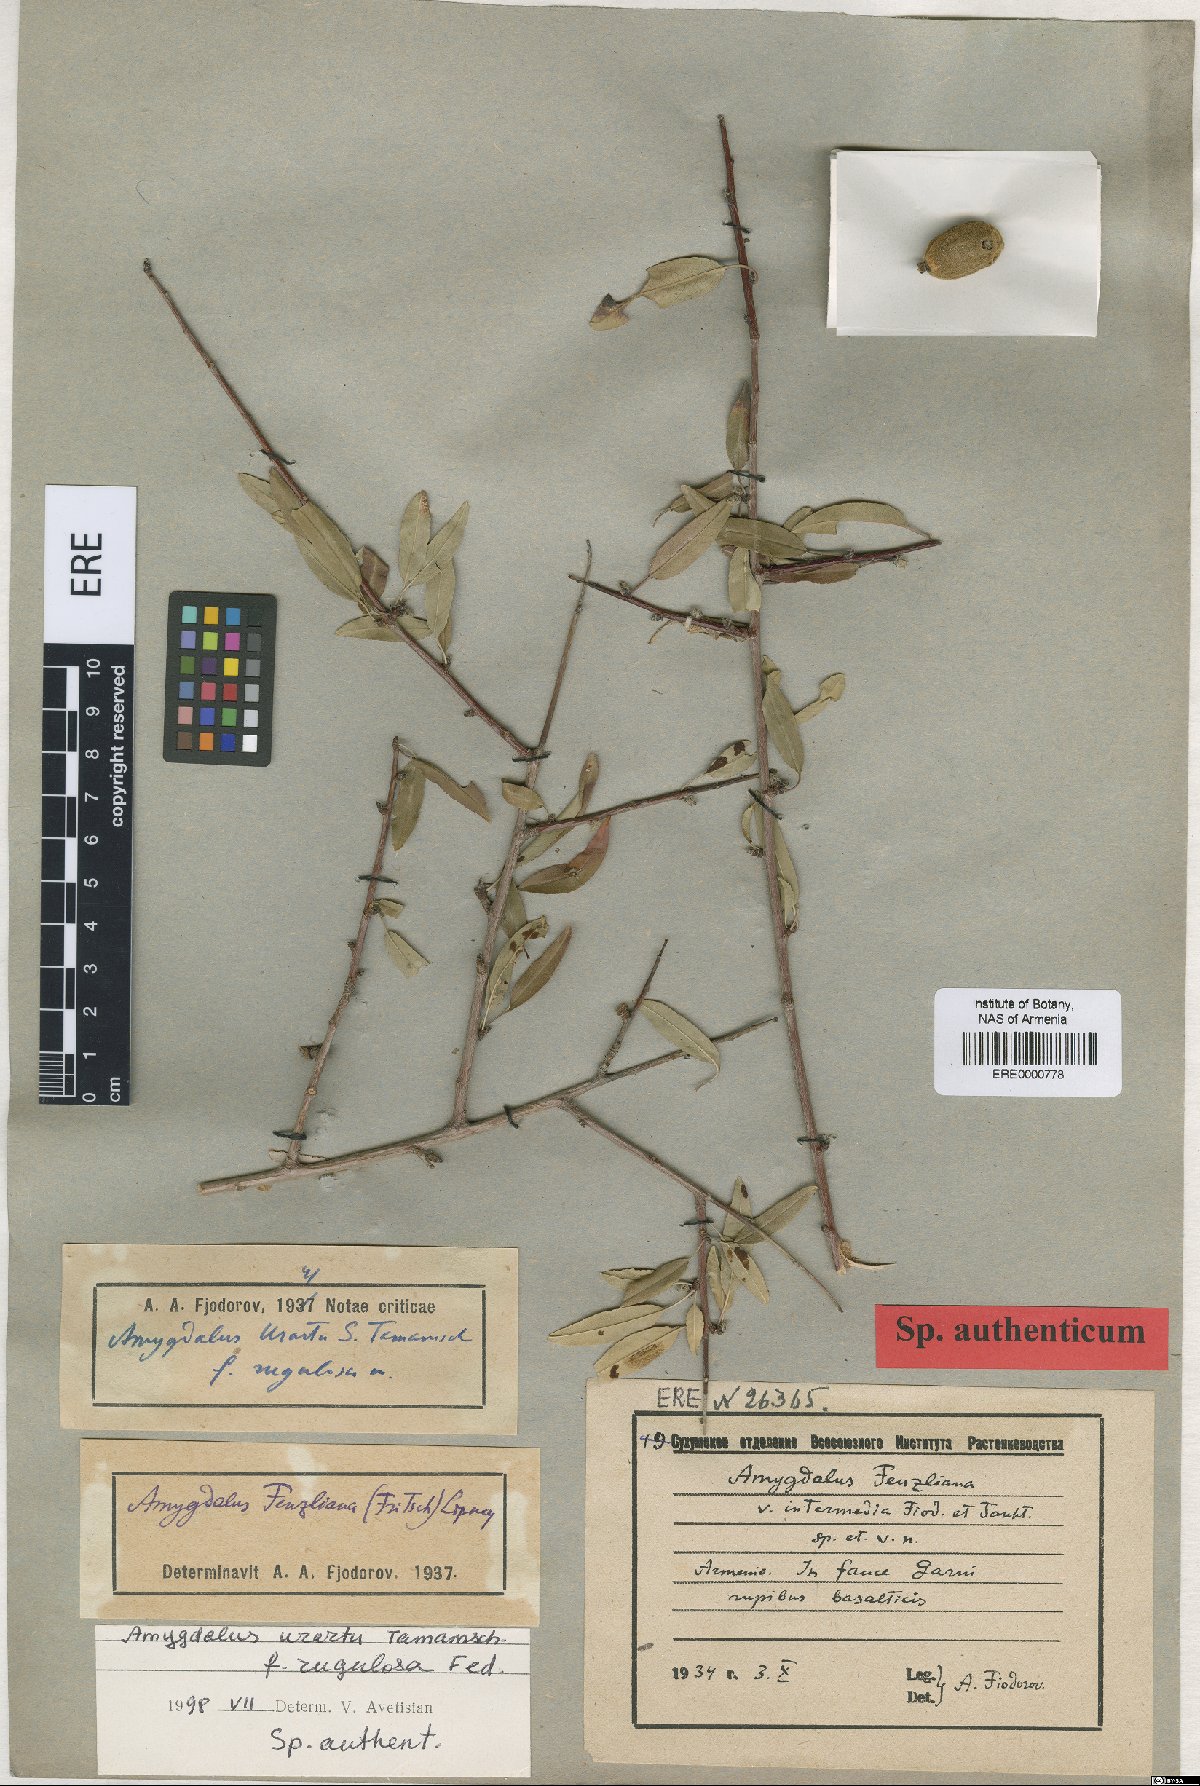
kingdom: Plantae
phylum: Tracheophyta
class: Magnoliopsida
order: Rosales
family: Rosaceae
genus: Prunus
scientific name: Prunus urartu
